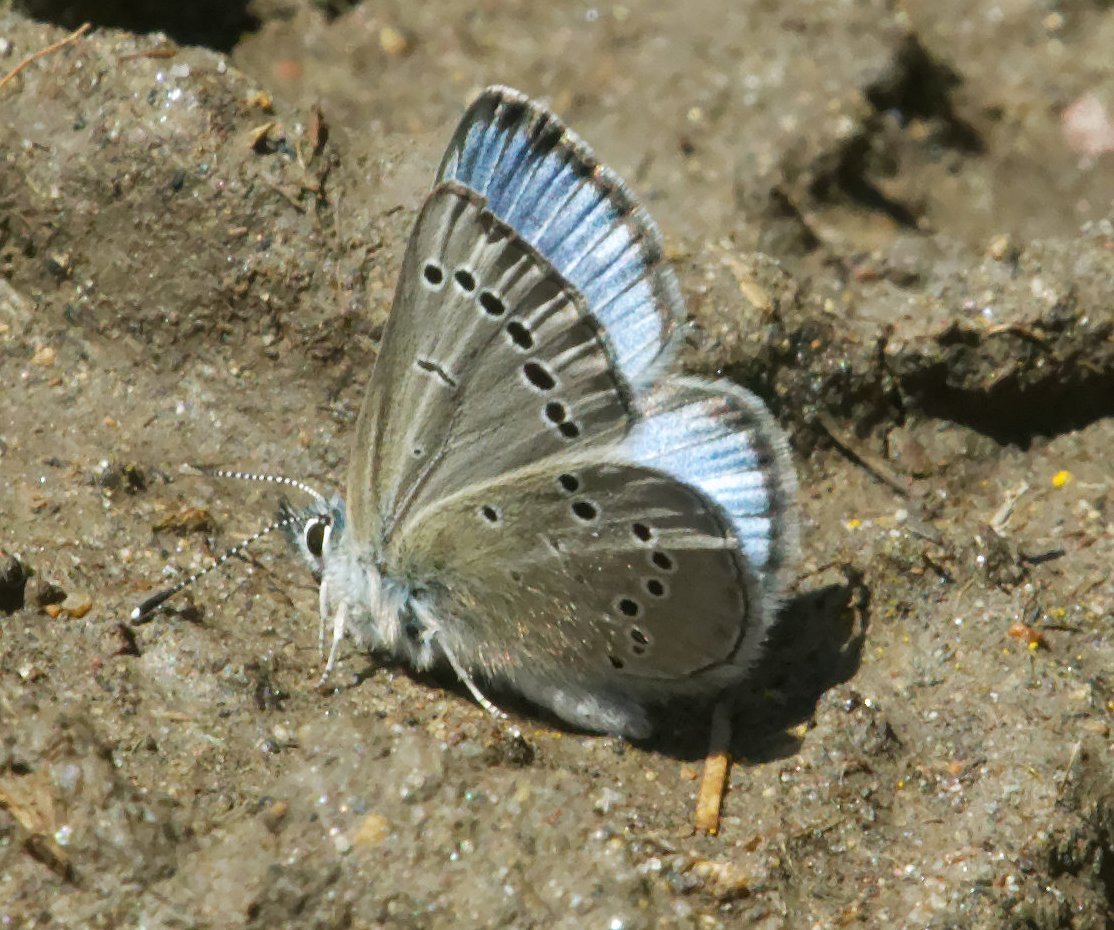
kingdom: Animalia
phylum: Arthropoda
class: Insecta
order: Lepidoptera
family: Lycaenidae
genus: Glaucopsyche
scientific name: Glaucopsyche lygdamus
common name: Silvery Blue
